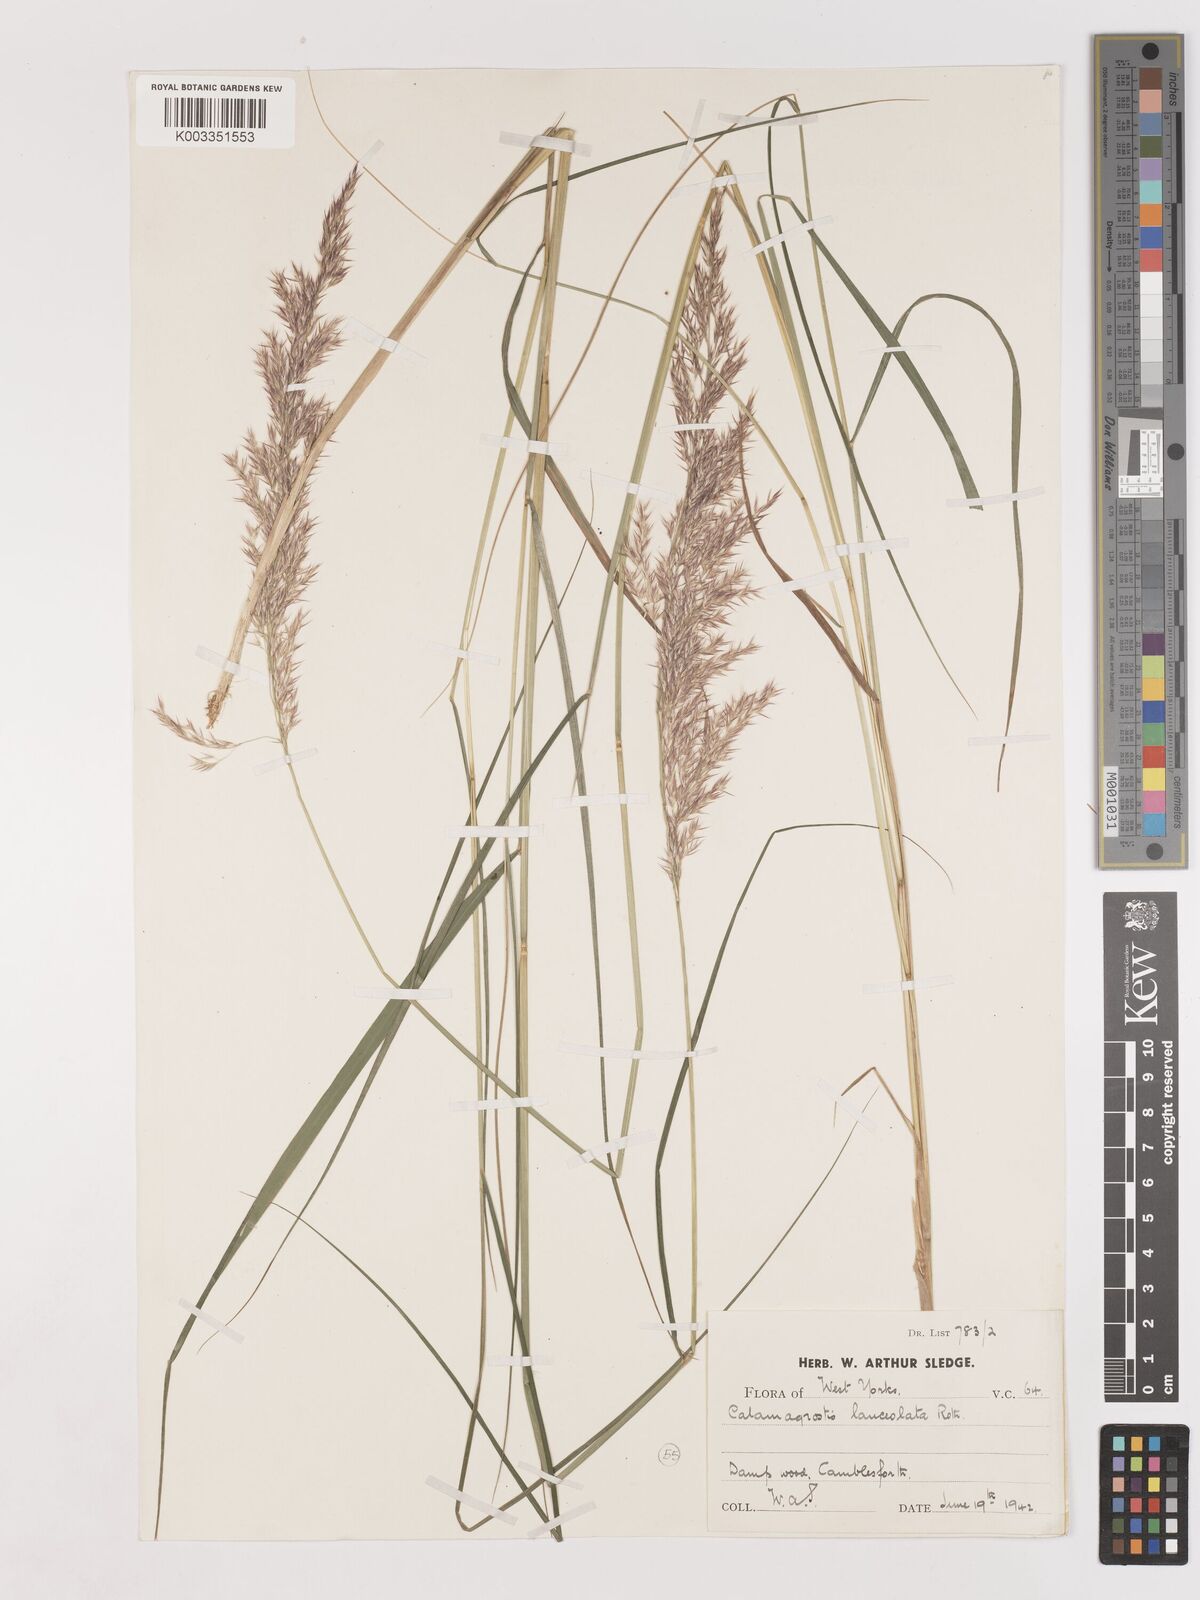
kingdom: Plantae
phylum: Tracheophyta
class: Liliopsida
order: Poales
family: Poaceae
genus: Calamagrostis
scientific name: Calamagrostis canescens
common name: Purple small-reed
